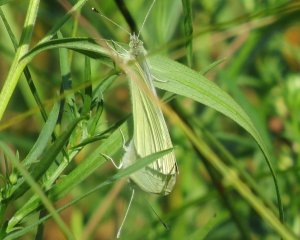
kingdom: Animalia
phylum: Arthropoda
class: Insecta
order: Lepidoptera
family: Pieridae
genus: Pieris
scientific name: Pieris rapae
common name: Cabbage White
